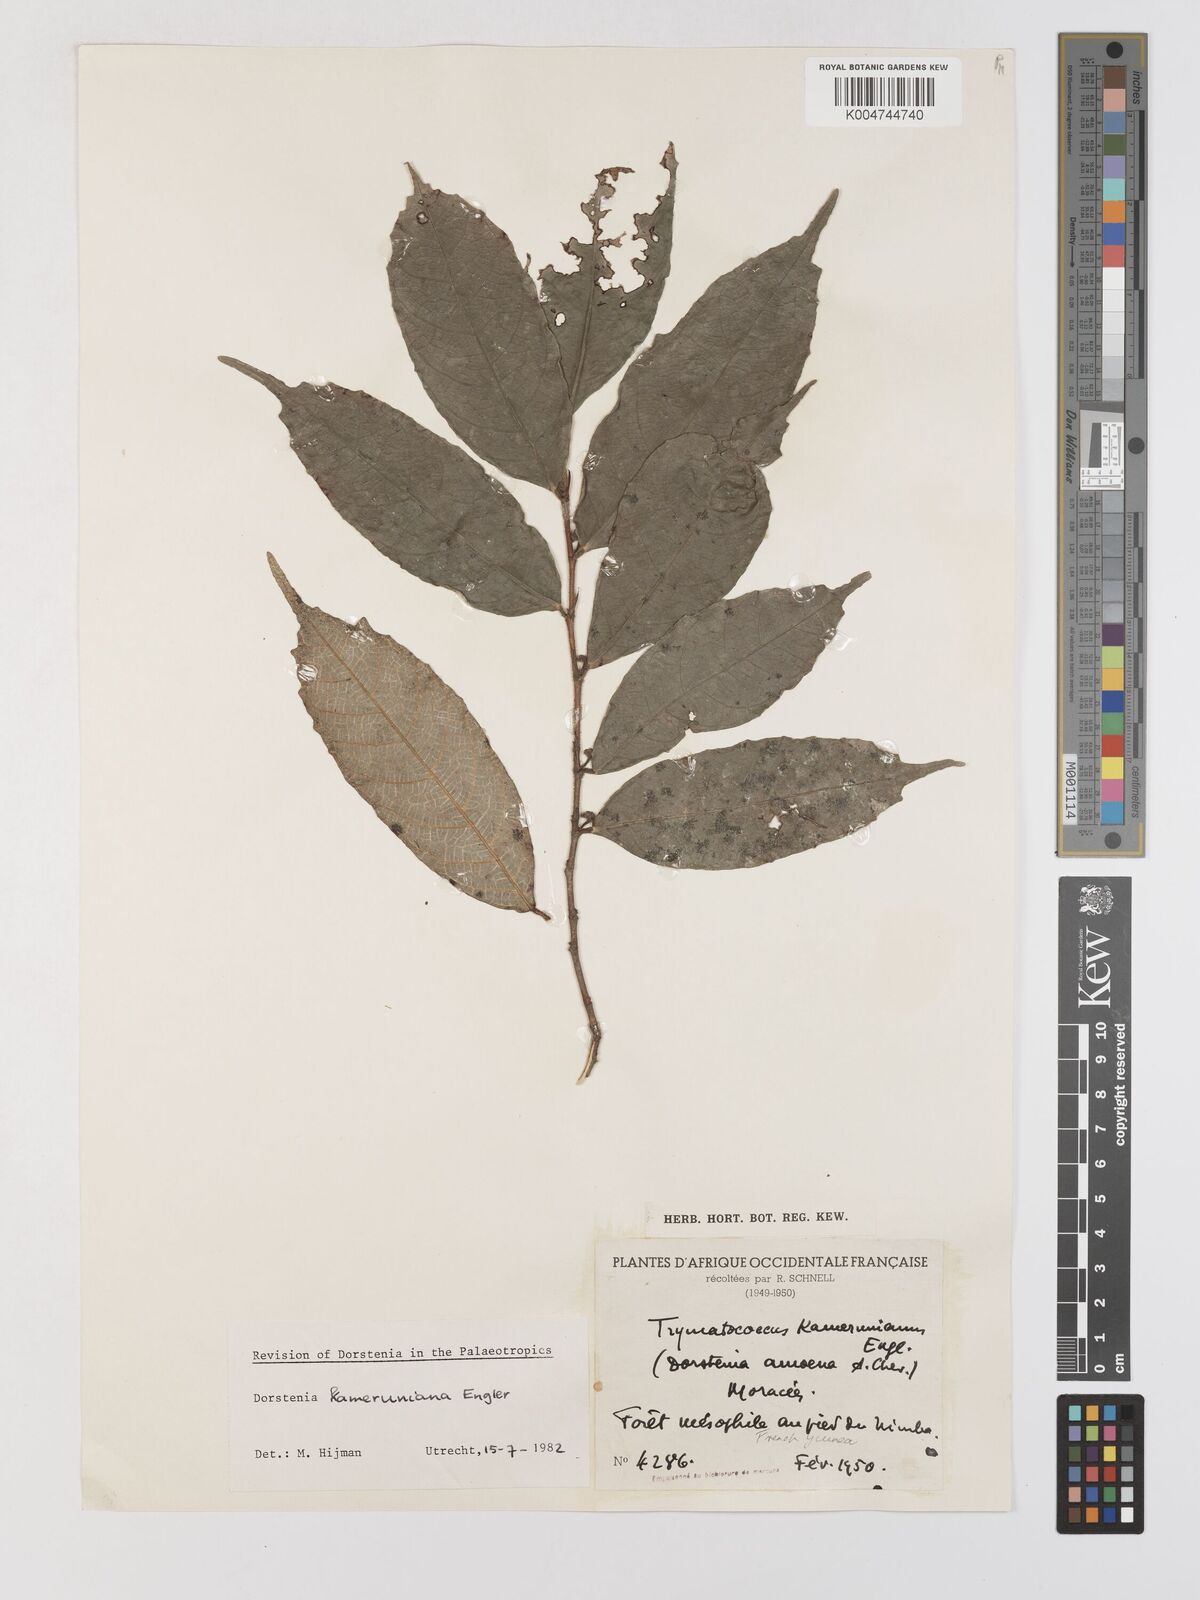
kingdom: Plantae
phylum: Tracheophyta
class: Magnoliopsida
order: Rosales
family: Moraceae
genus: Dorstenia
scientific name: Dorstenia kameruniana
